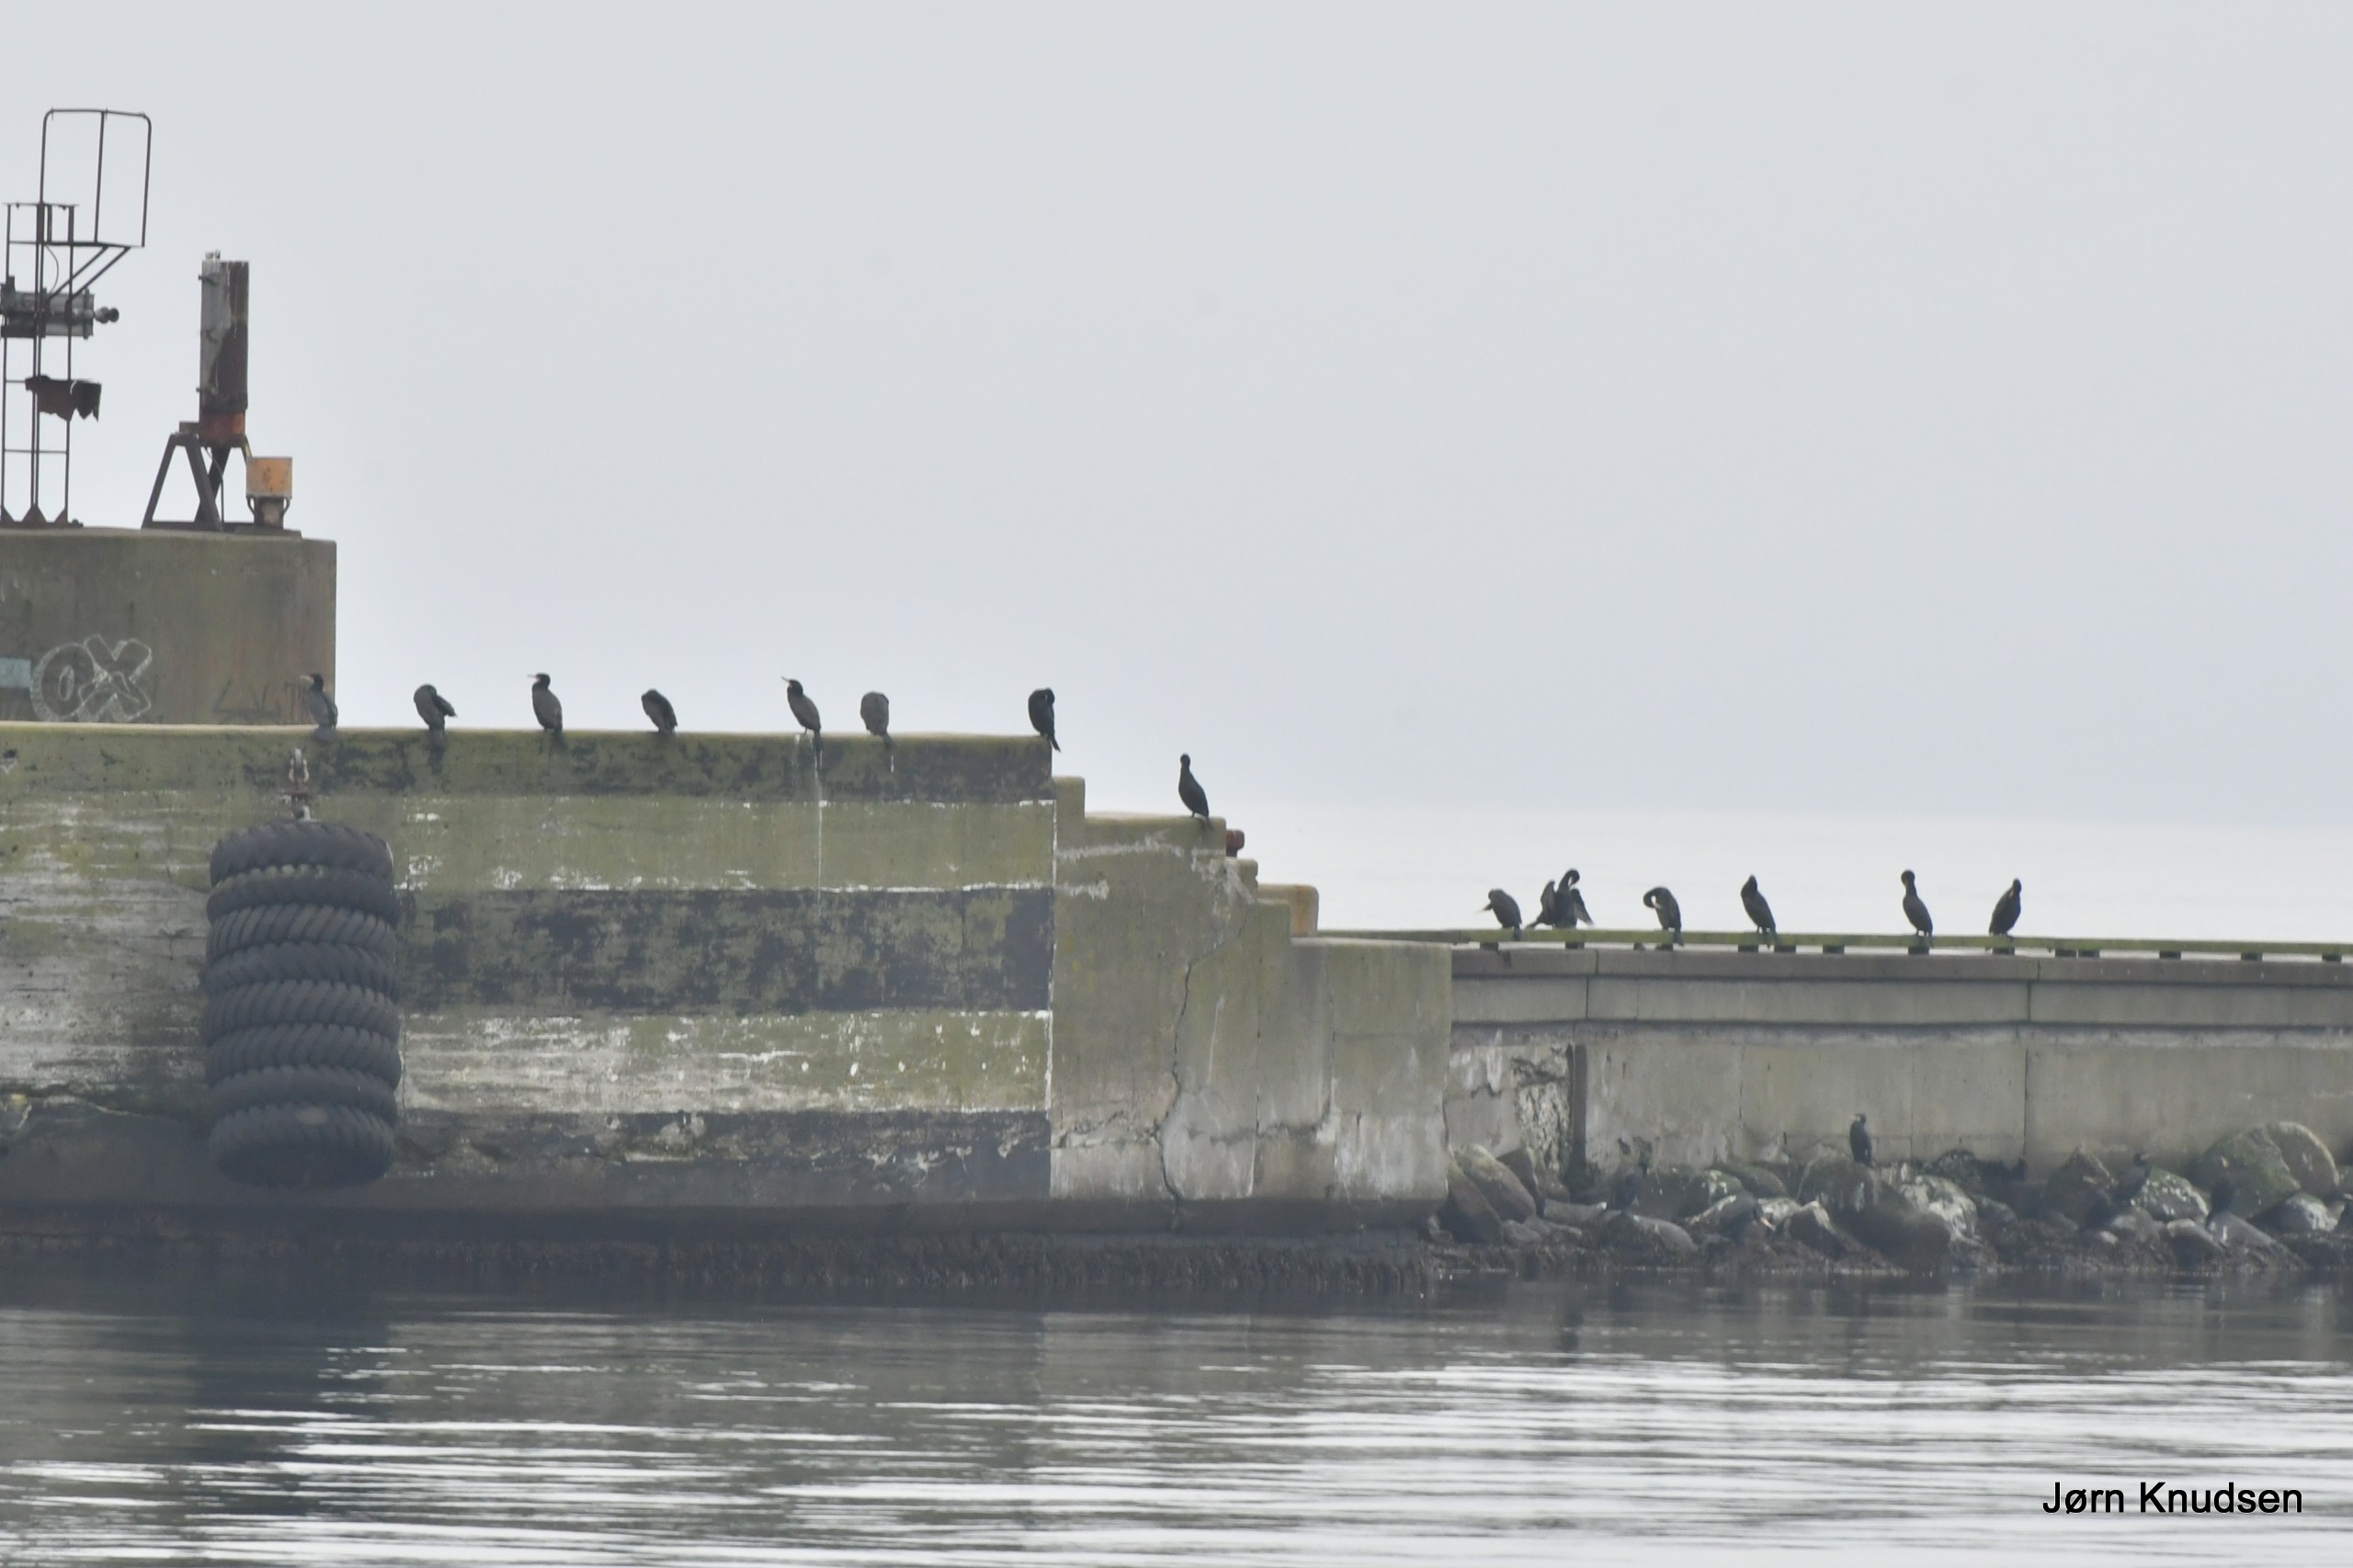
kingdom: Animalia
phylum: Chordata
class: Aves
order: Suliformes
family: Phalacrocoracidae
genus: Phalacrocorax
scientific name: Phalacrocorax carbo
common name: Skarv
